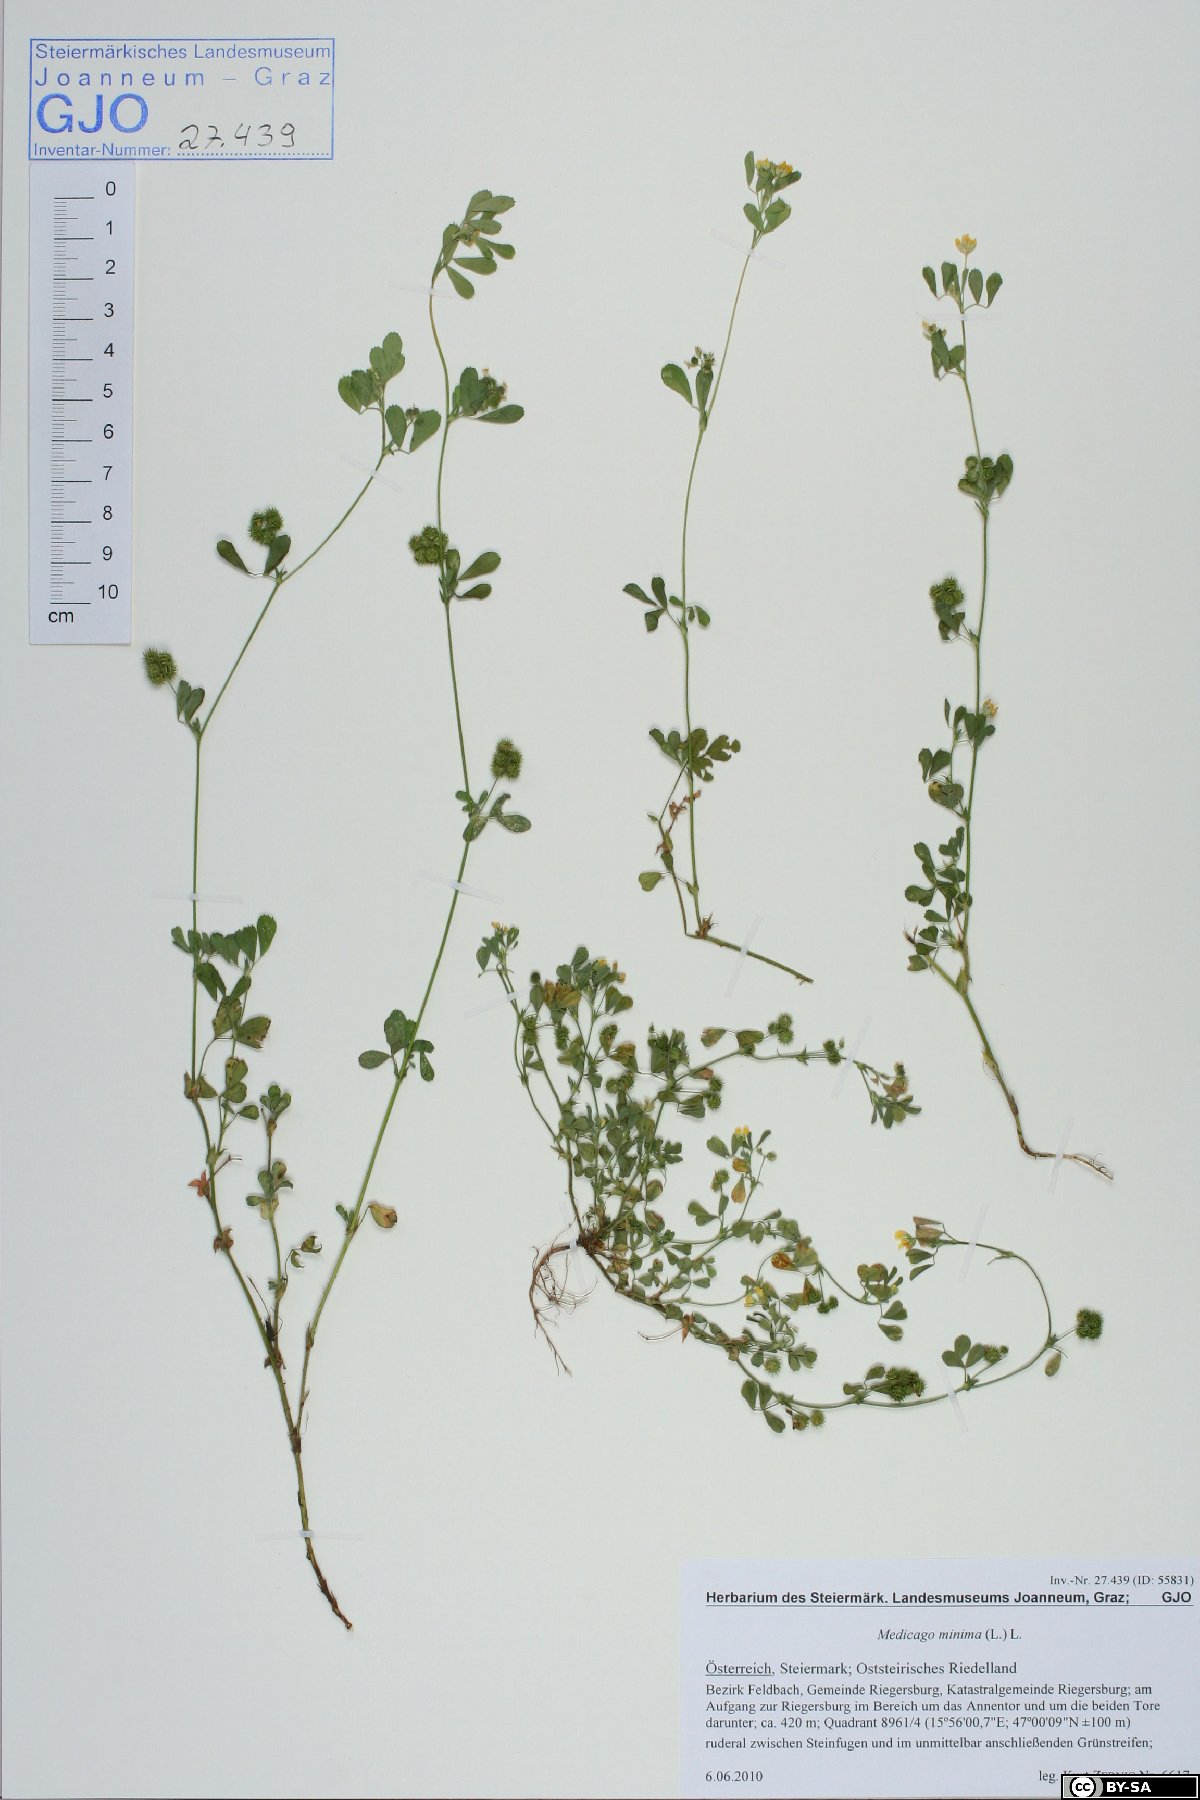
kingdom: Plantae
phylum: Tracheophyta
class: Magnoliopsida
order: Fabales
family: Fabaceae
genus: Medicago
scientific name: Medicago minima
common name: Little bur-clover
